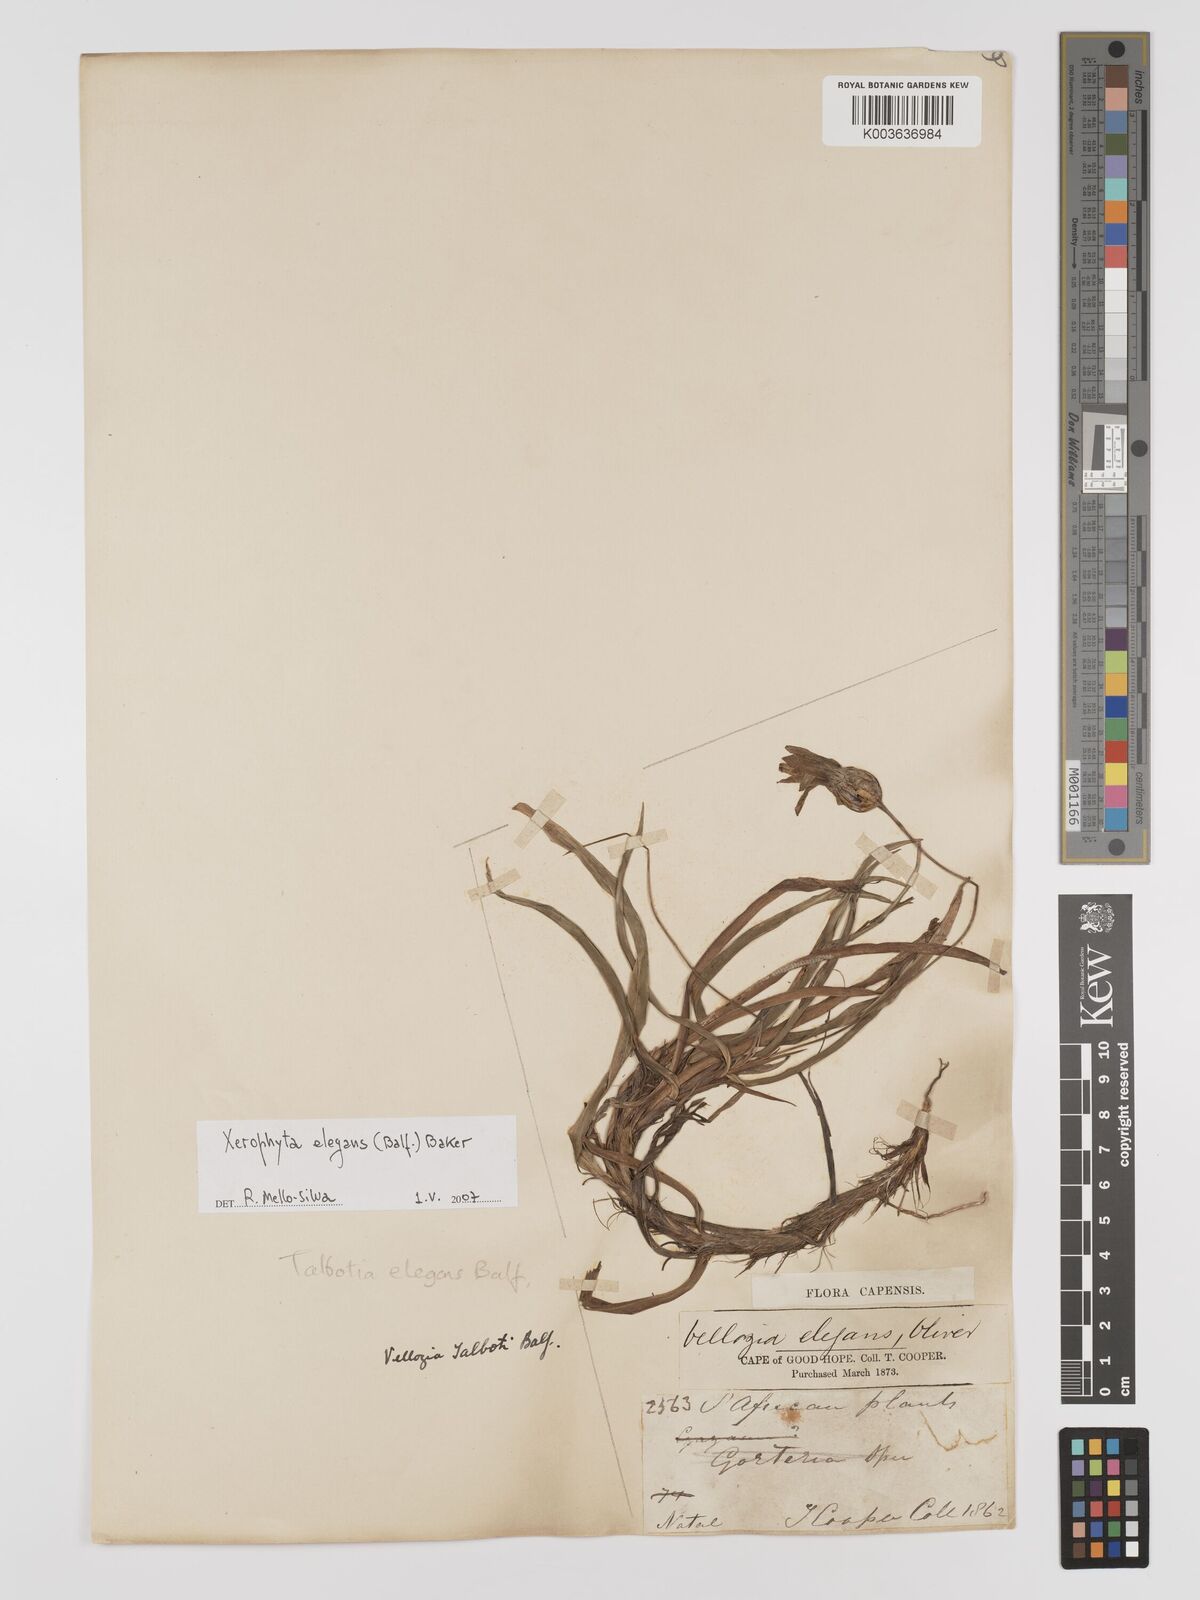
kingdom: Plantae
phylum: Tracheophyta
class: Liliopsida
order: Pandanales
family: Velloziaceae
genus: Xerophyta
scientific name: Xerophyta elegans
